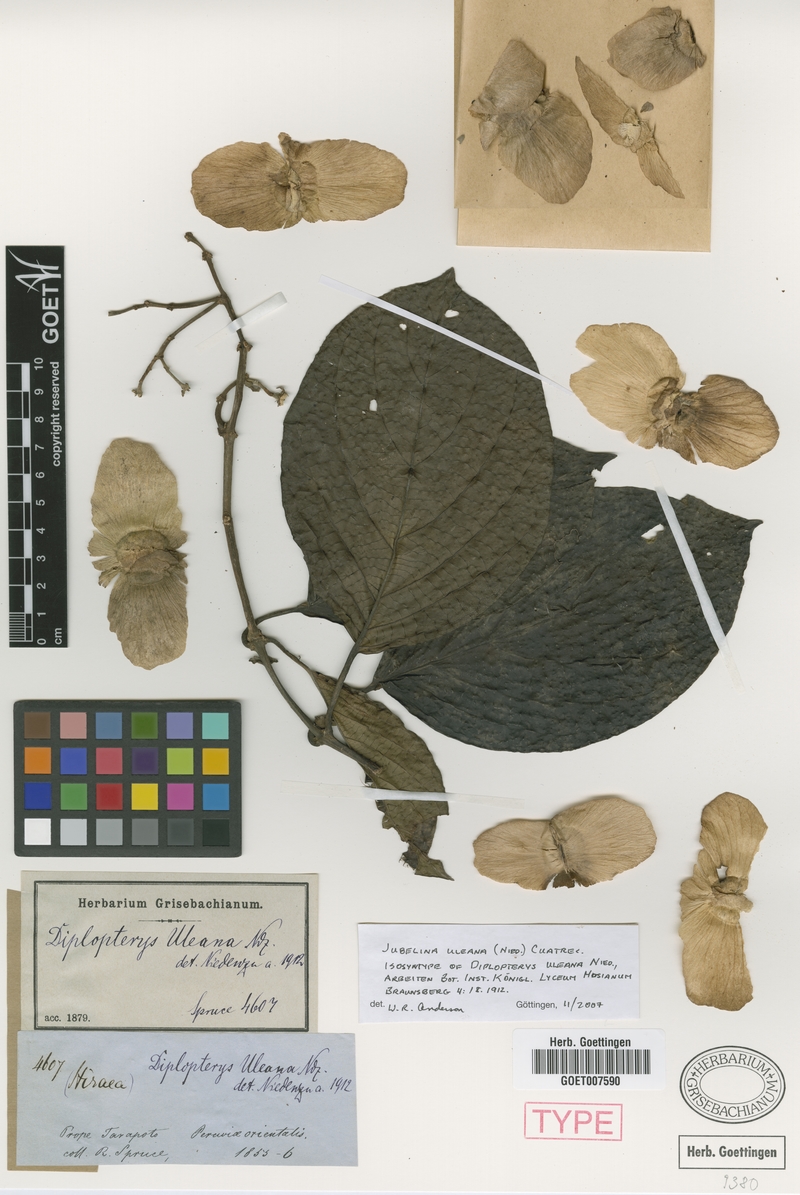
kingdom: Plantae
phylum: Tracheophyta
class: Magnoliopsida
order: Malpighiales
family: Malpighiaceae
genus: Jubelina
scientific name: Jubelina uleana
